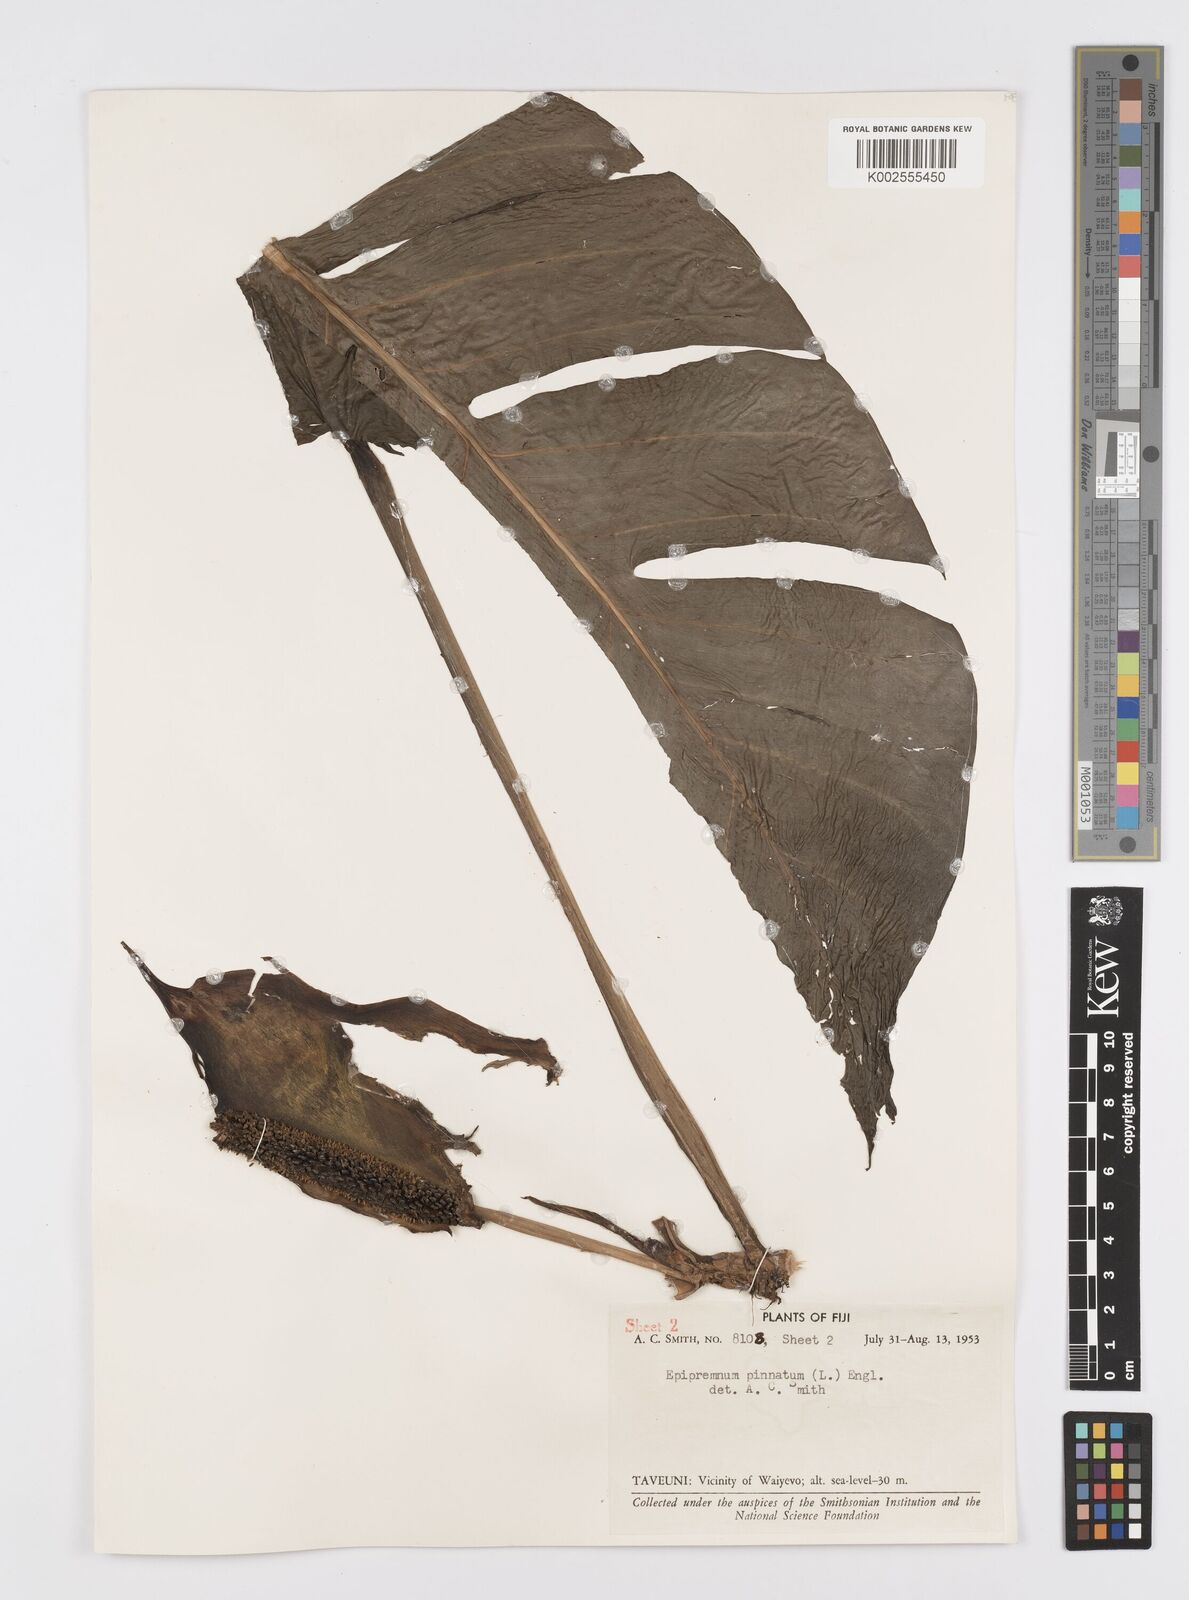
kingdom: Plantae
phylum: Tracheophyta
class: Liliopsida
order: Alismatales
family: Araceae
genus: Epipremnum
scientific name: Epipremnum pinnatum
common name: Centipede tongavine
